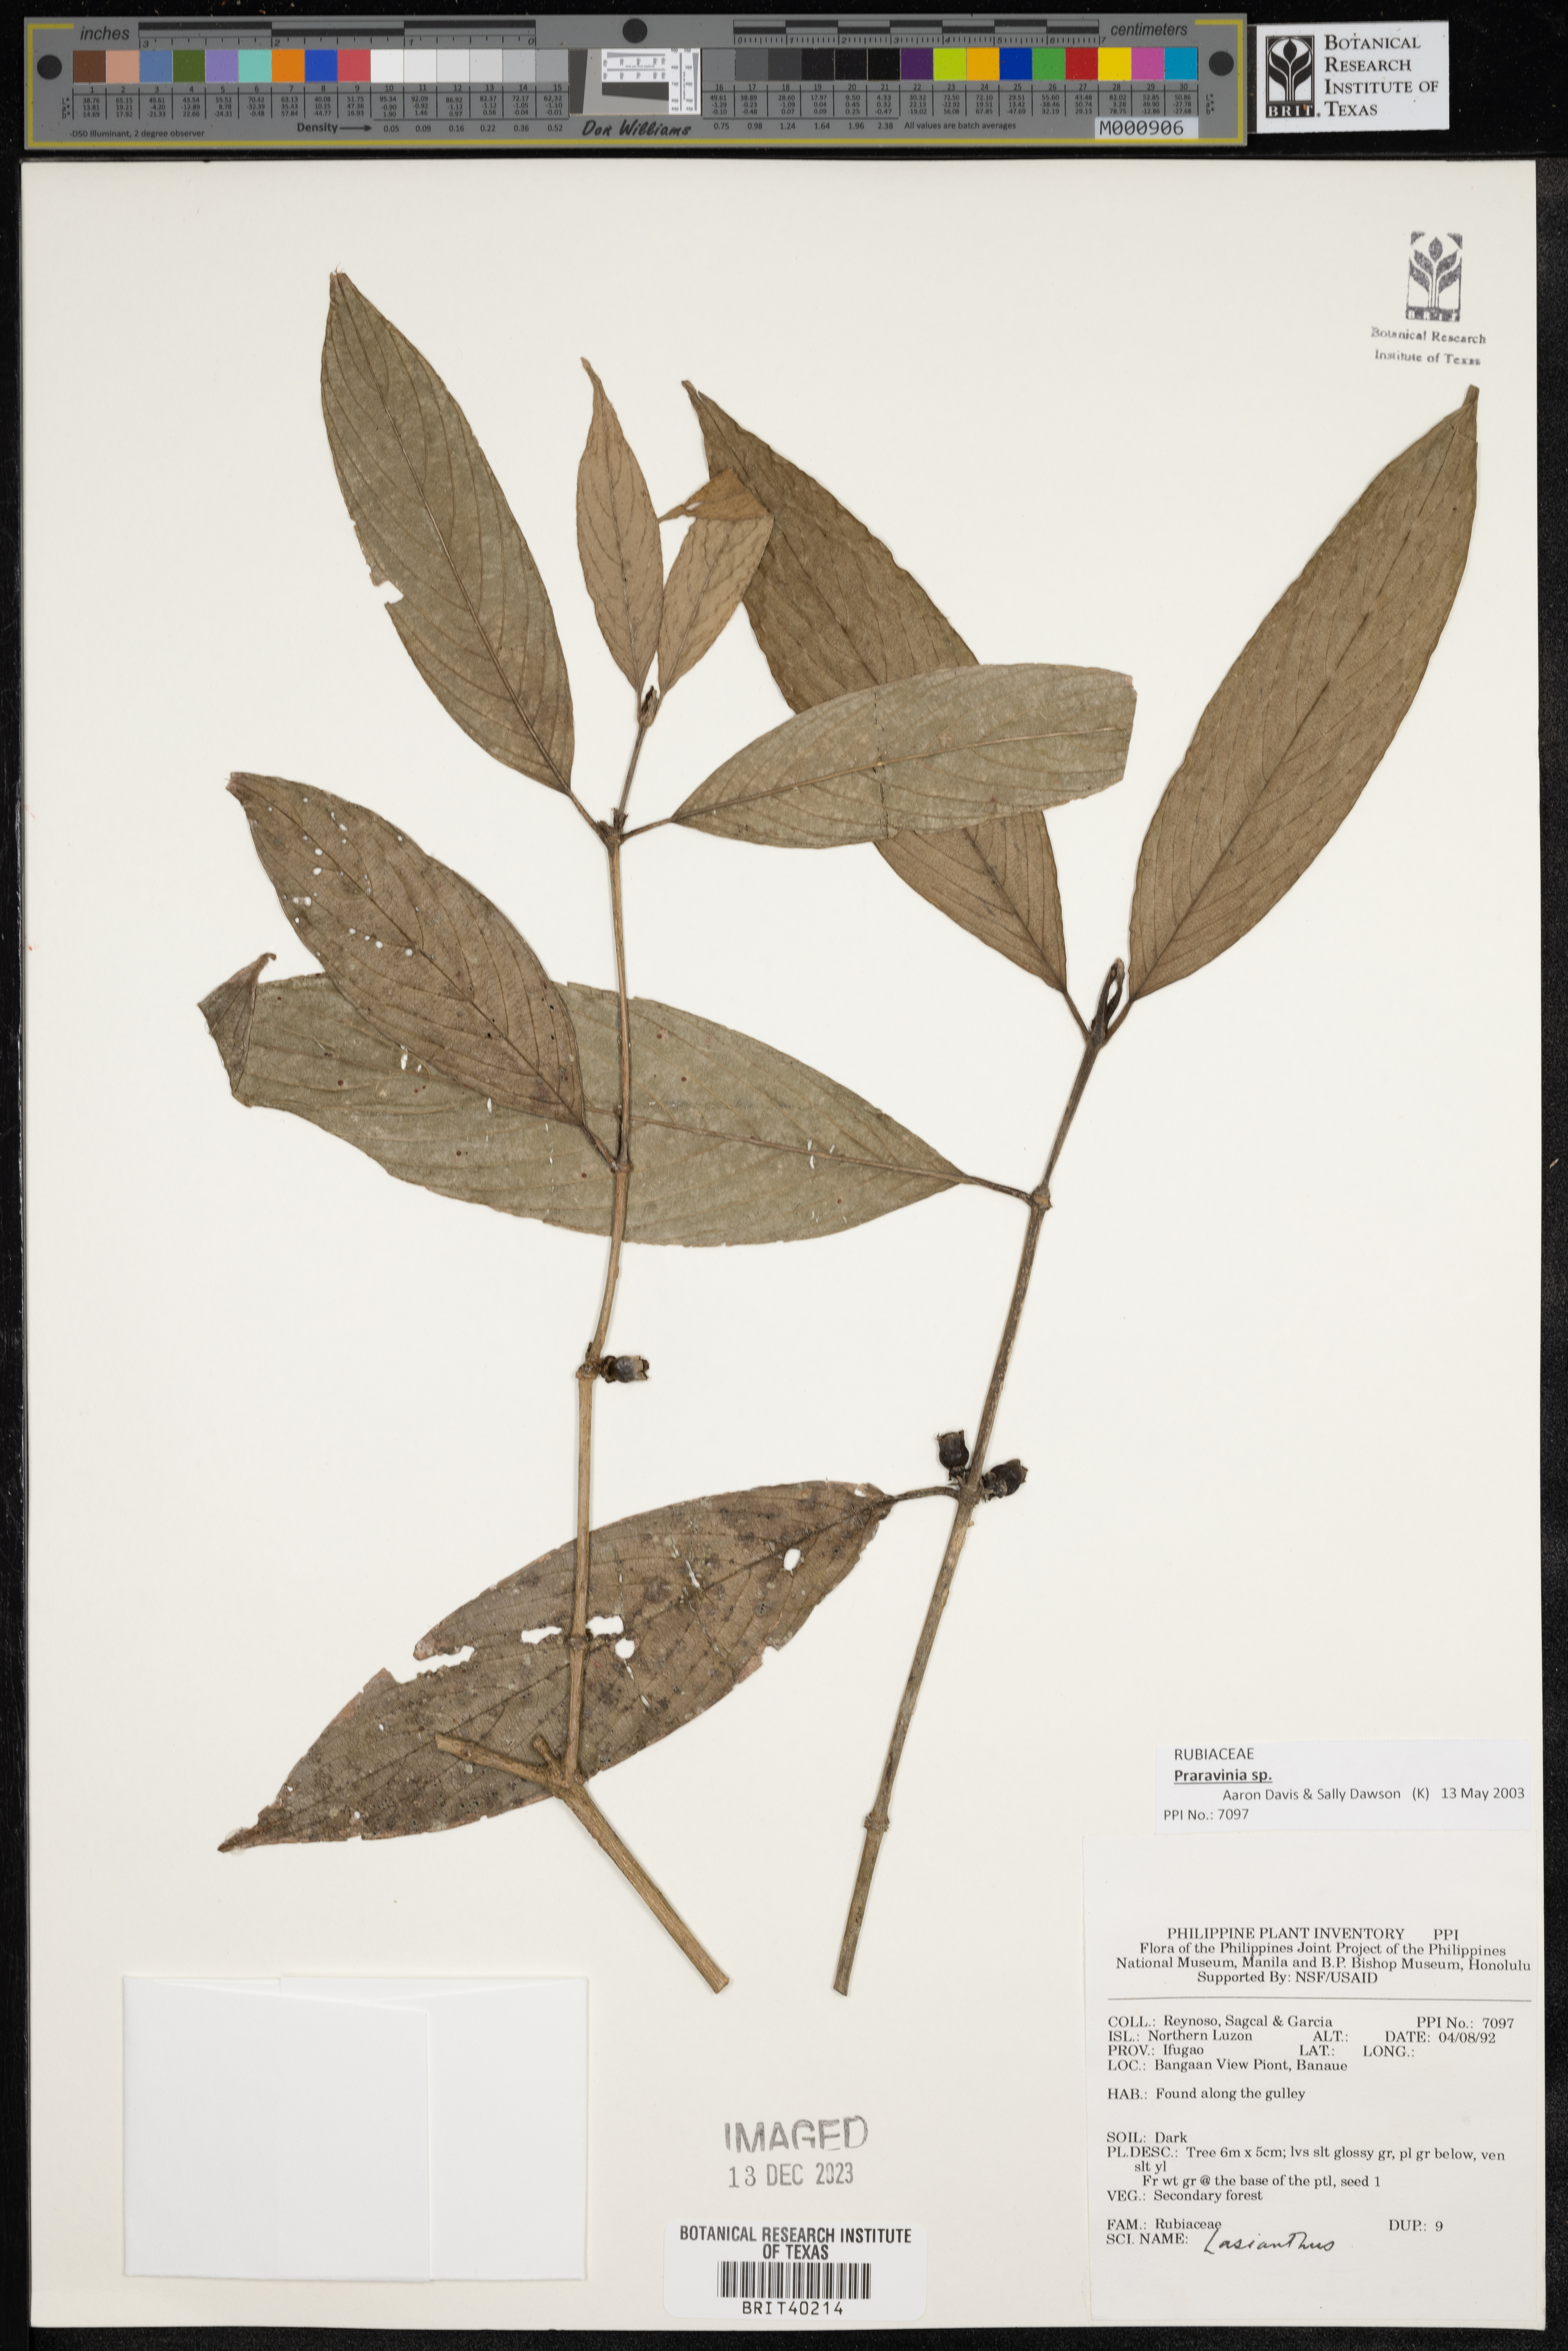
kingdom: Plantae
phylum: Tracheophyta
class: Magnoliopsida
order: Gentianales
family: Rubiaceae
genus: Lasianthus
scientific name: Lasianthus
